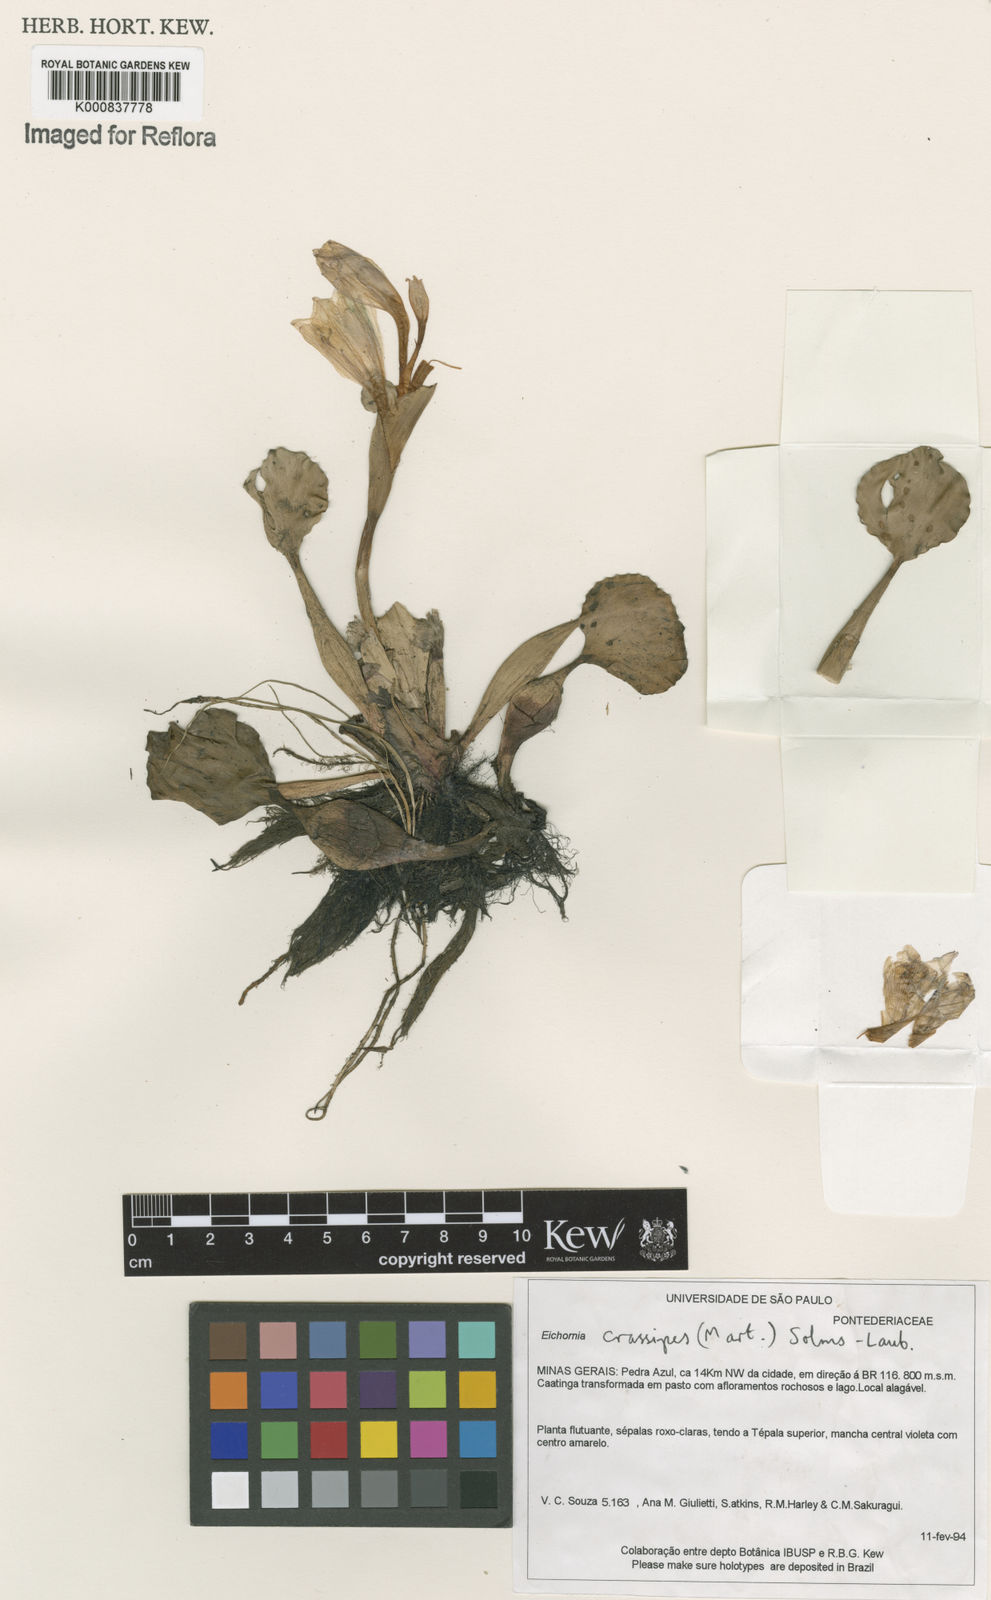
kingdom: Plantae
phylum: Tracheophyta
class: Liliopsida
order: Commelinales
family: Pontederiaceae
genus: Pontederia
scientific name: Pontederia crassipes
